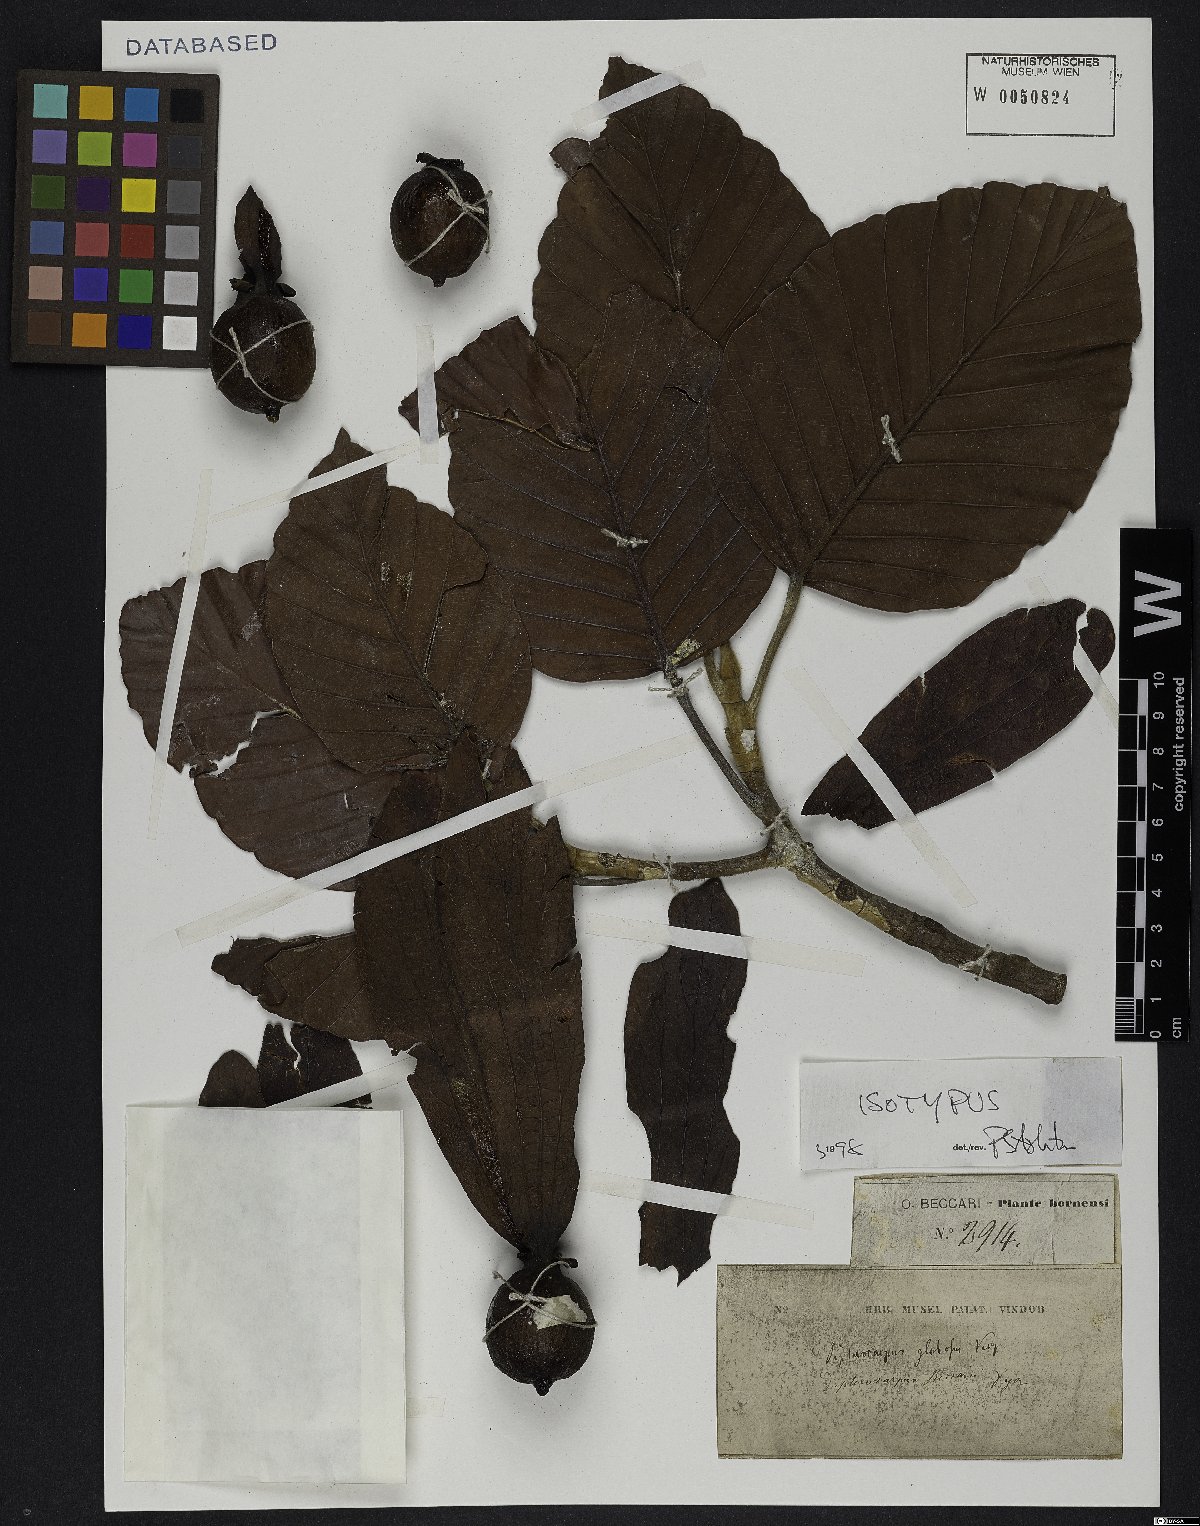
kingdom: Plantae
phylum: Tracheophyta
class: Magnoliopsida
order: Malvales
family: Dipterocarpaceae
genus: Dipterocarpus
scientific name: Dipterocarpus globosus
